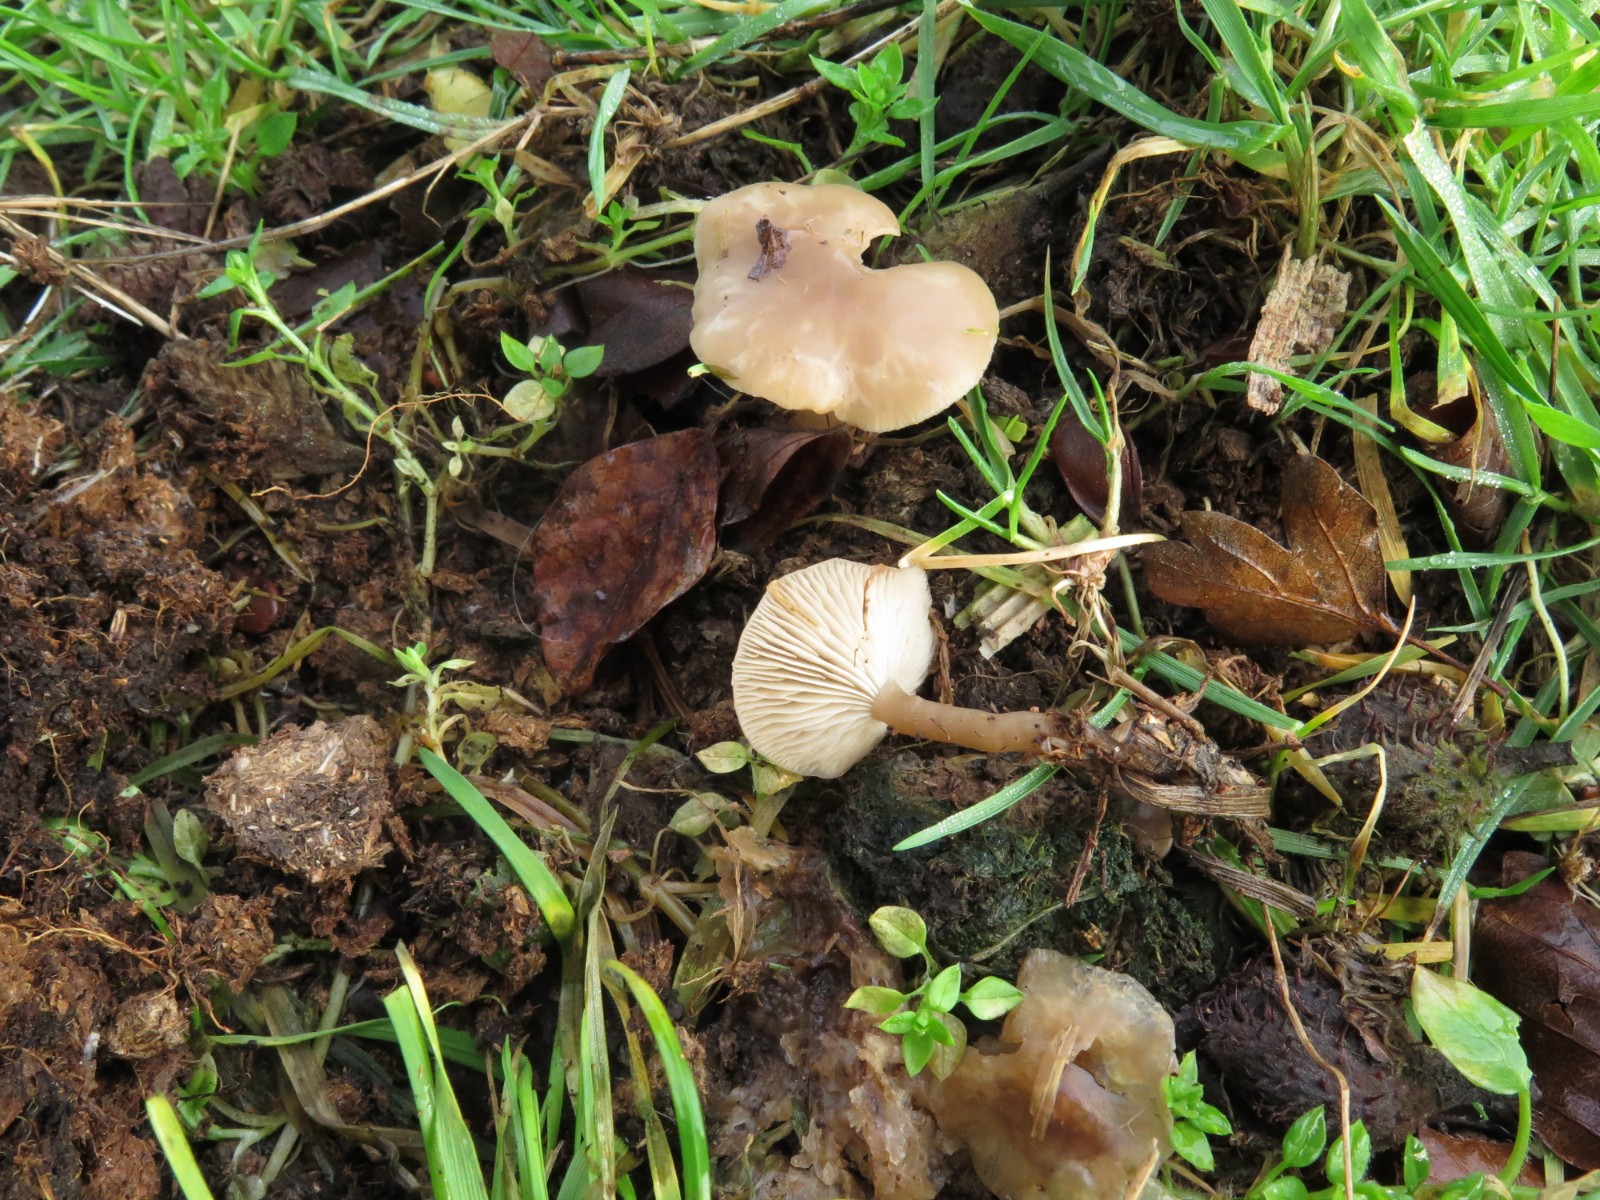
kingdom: Fungi
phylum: Basidiomycota
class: Agaricomycetes
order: Agaricales
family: Tricholomataceae
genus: Clitocybe
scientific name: Clitocybe amarescens
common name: gødnings-tragthat
